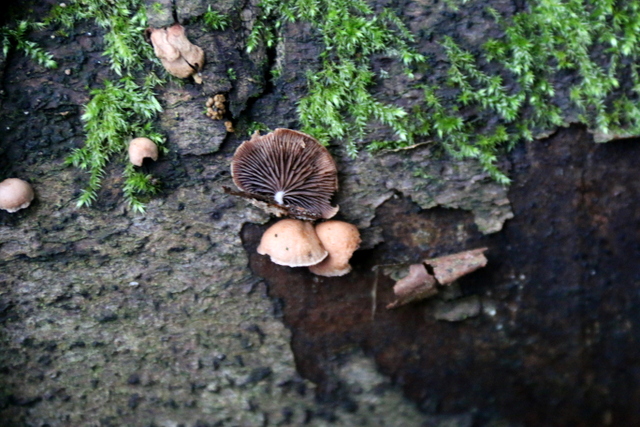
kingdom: Fungi
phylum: Basidiomycota
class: Agaricomycetes
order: Agaricales
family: Strophariaceae
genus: Deconica
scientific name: Deconica horizontalis
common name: ved-stråhat
